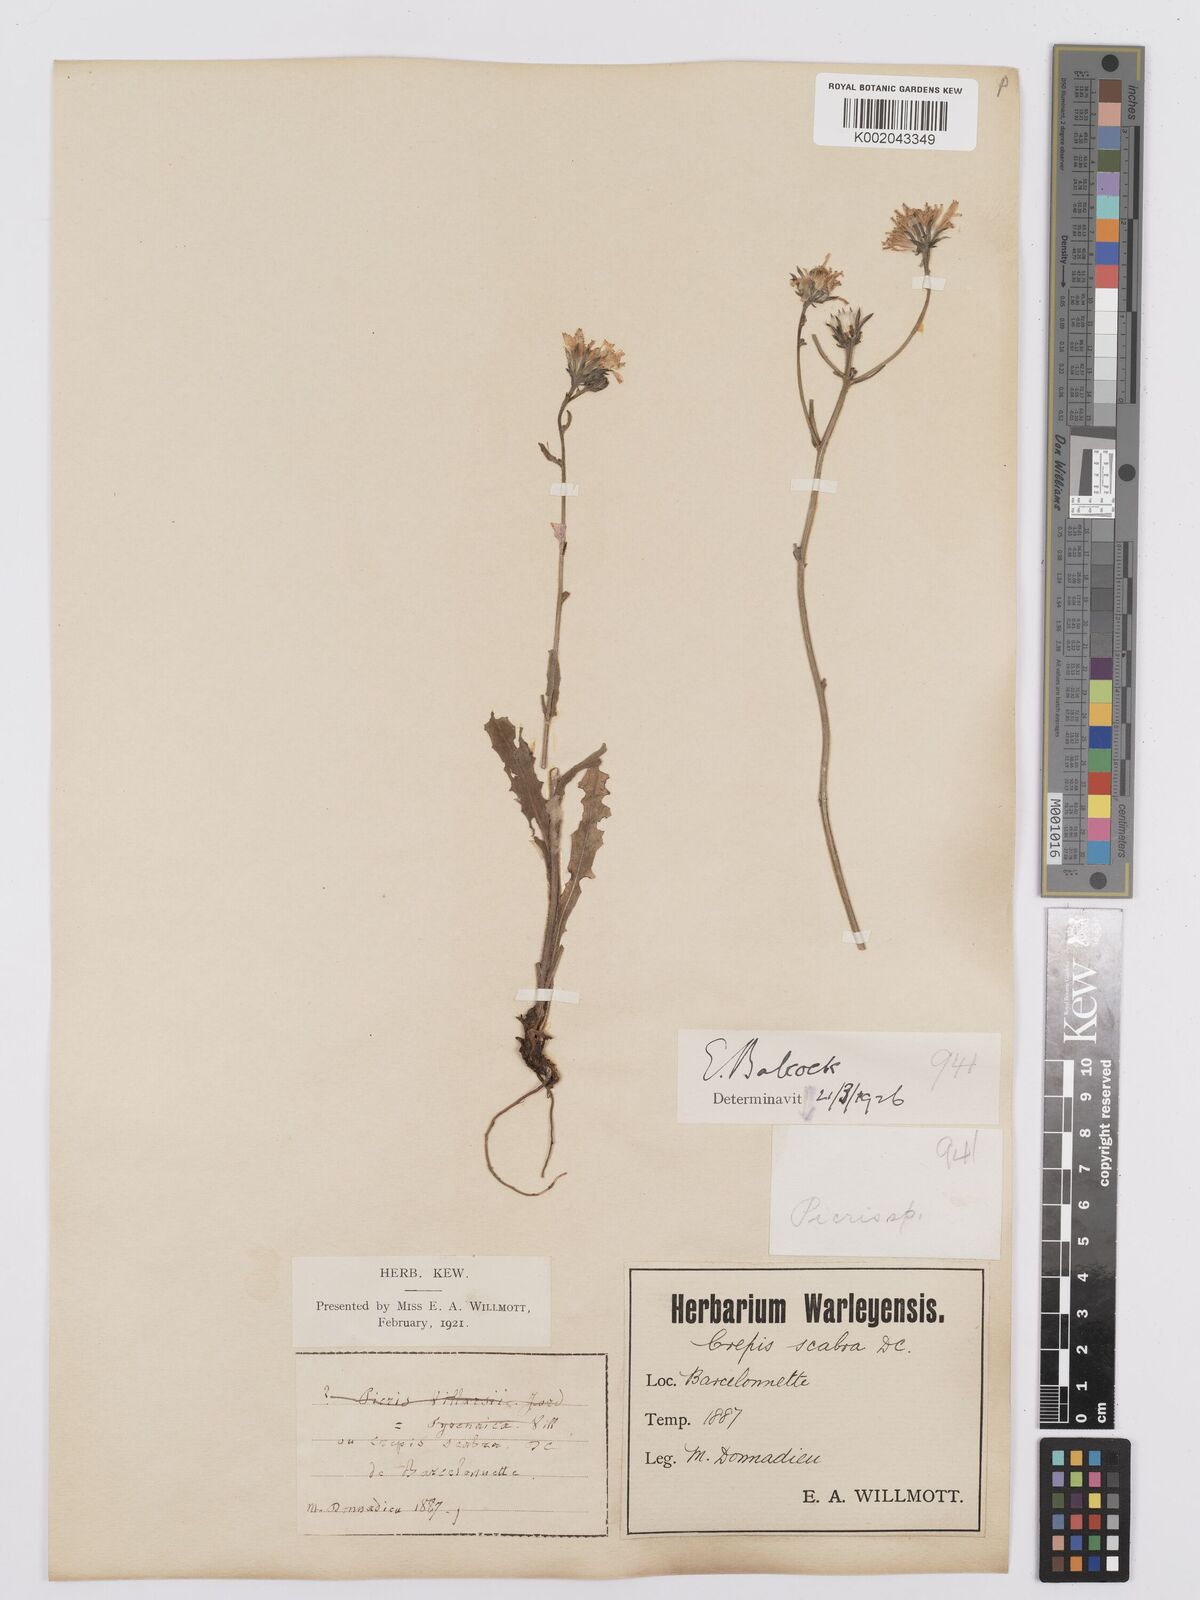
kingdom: Plantae
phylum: Tracheophyta
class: Magnoliopsida
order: Asterales
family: Asteraceae
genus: Picris
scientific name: Picris hieracioides
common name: Hawkweed oxtongue
